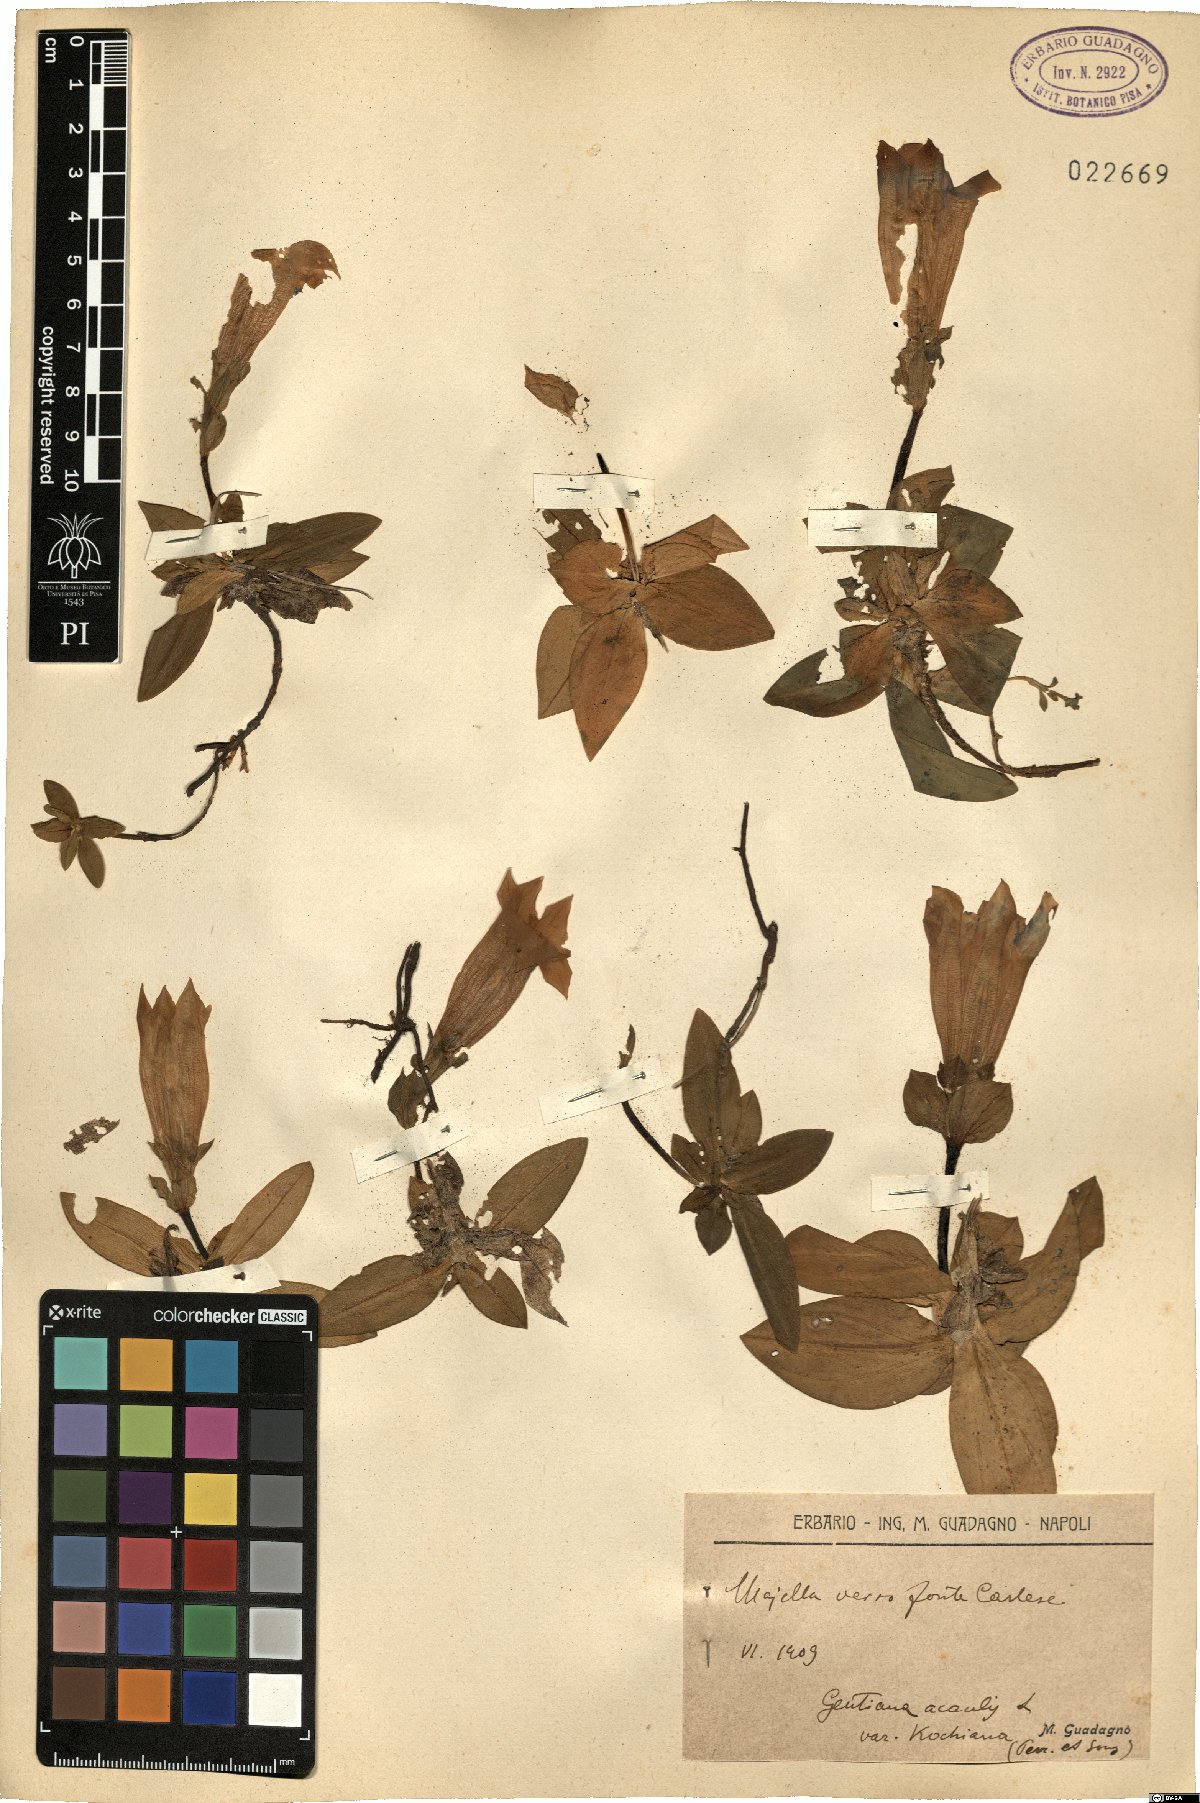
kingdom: Plantae
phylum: Tracheophyta
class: Magnoliopsida
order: Gentianales
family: Gentianaceae
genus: Gentiana
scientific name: Gentiana acaulis
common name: Trumpet gentian
